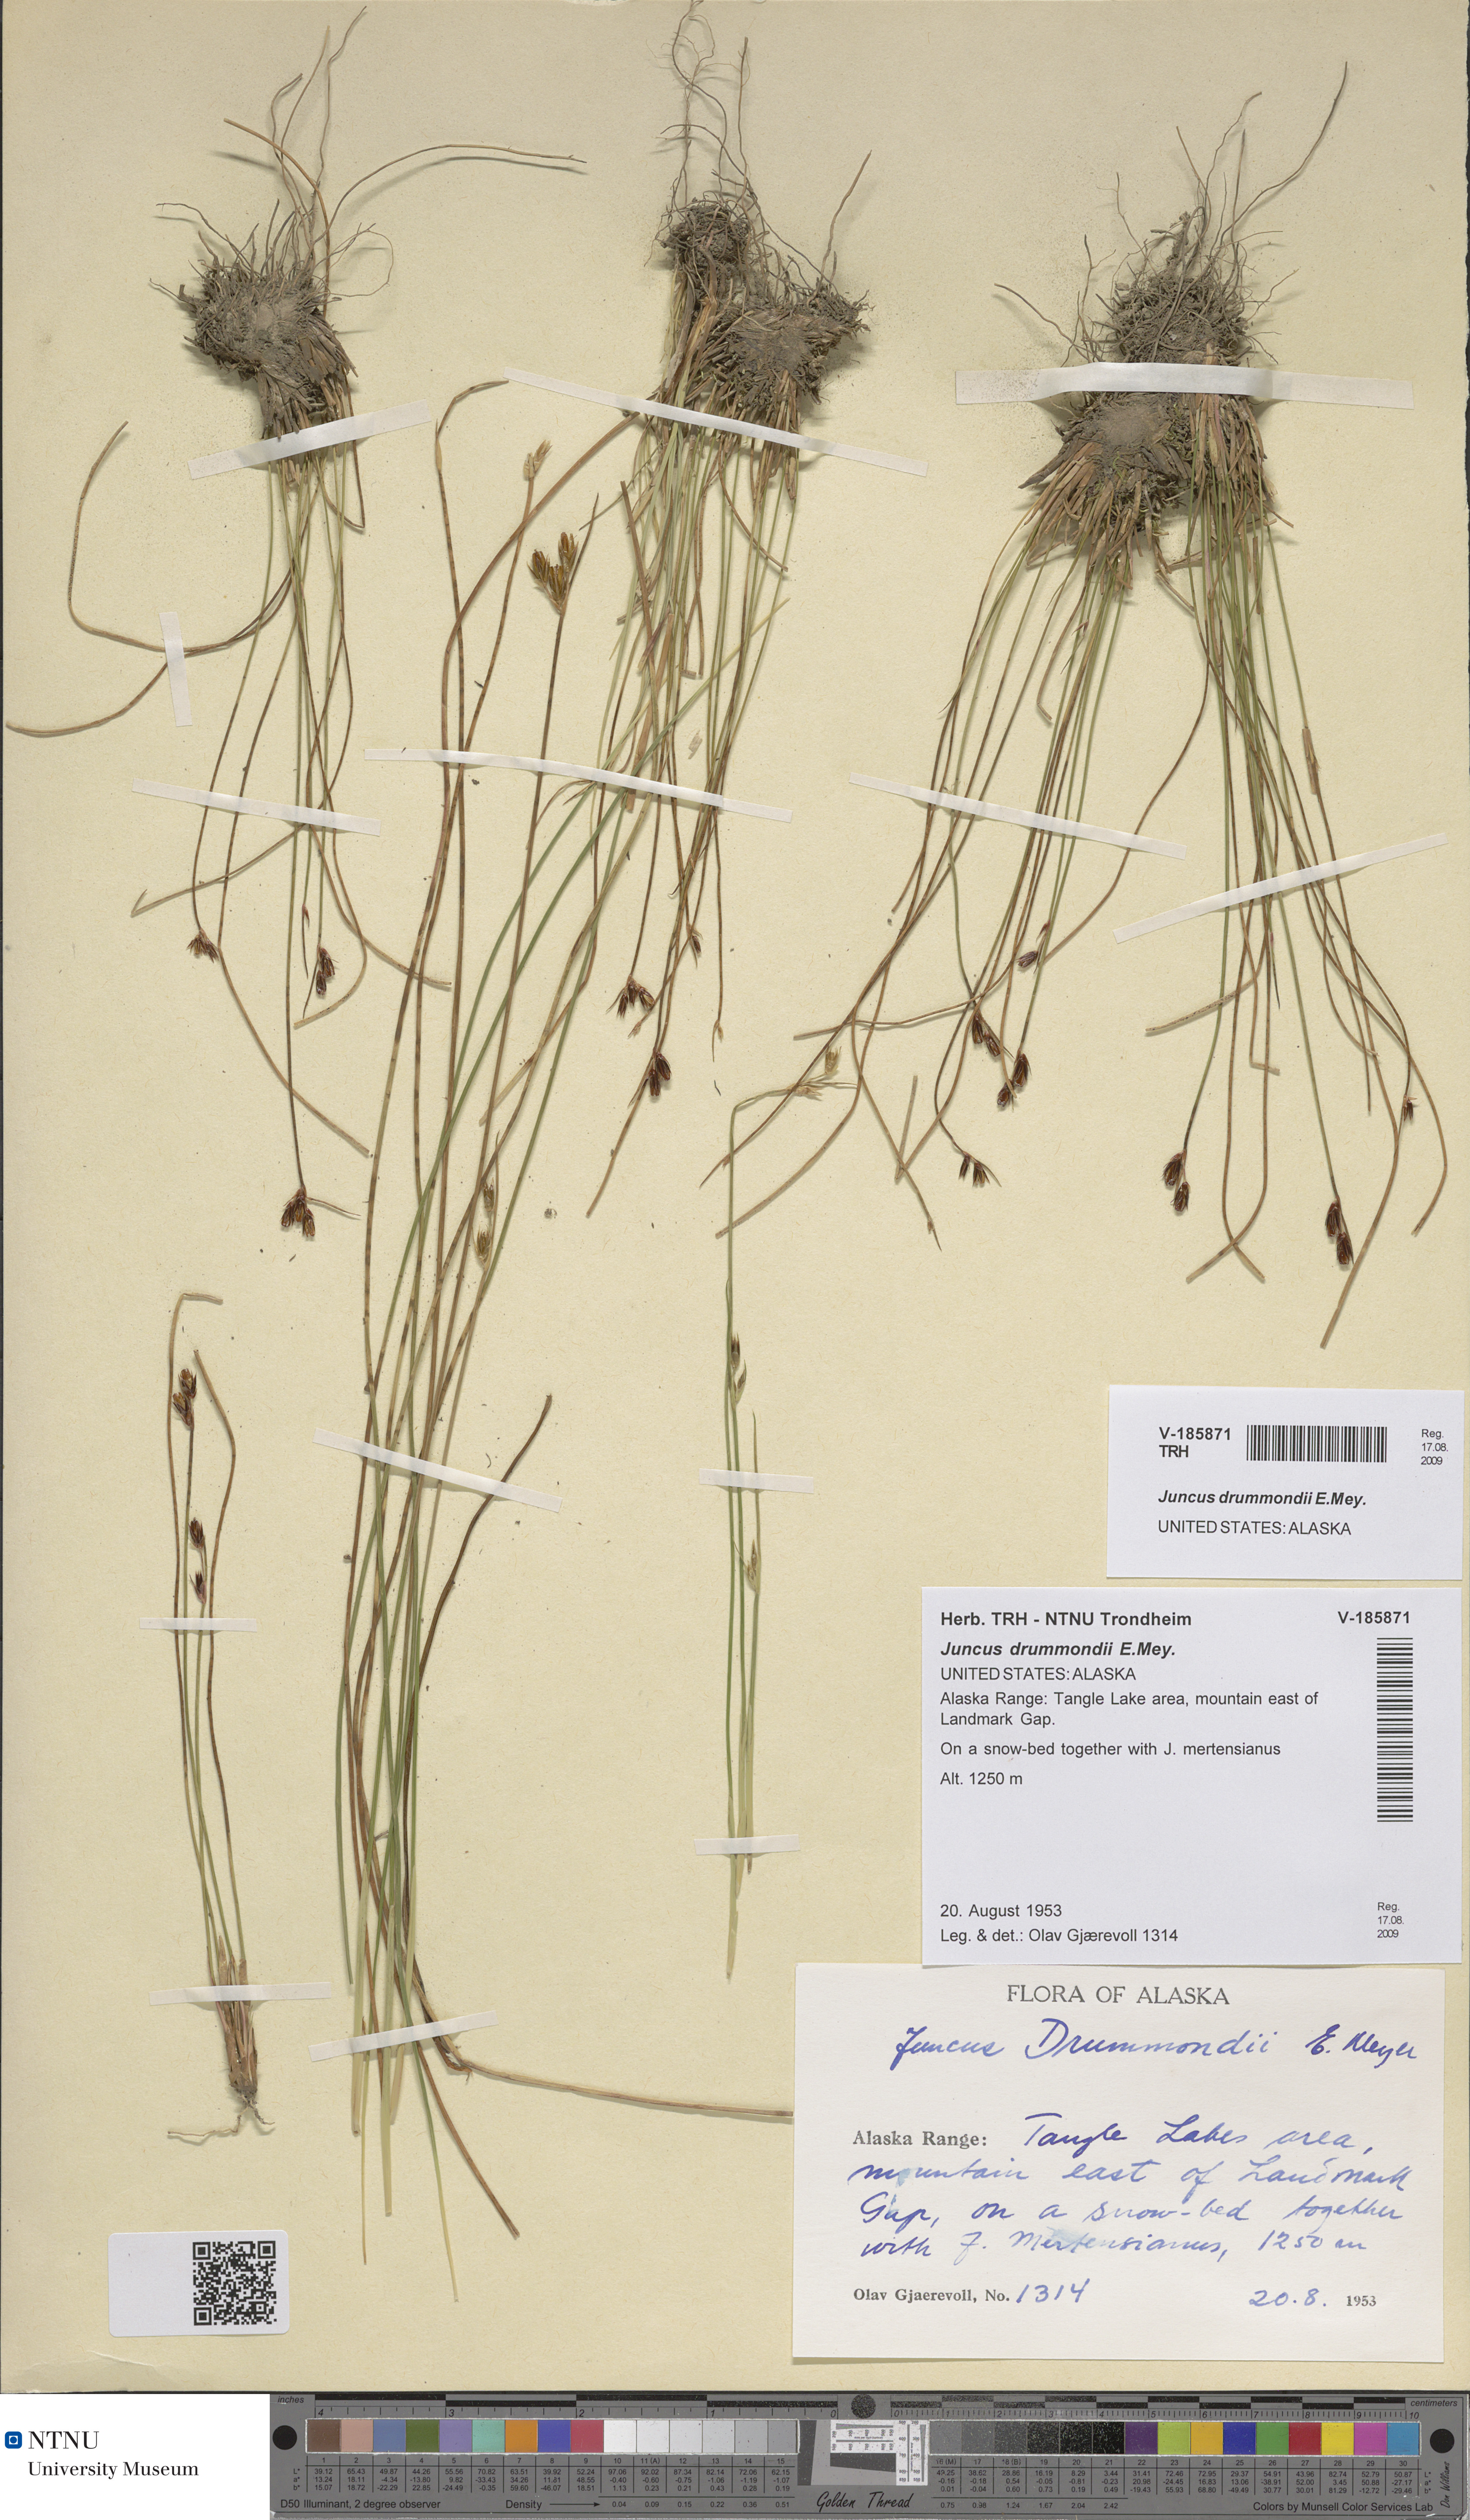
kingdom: Plantae
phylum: Tracheophyta
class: Liliopsida
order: Poales
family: Juncaceae
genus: Juncus
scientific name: Juncus drummondii
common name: Drummond's rush
